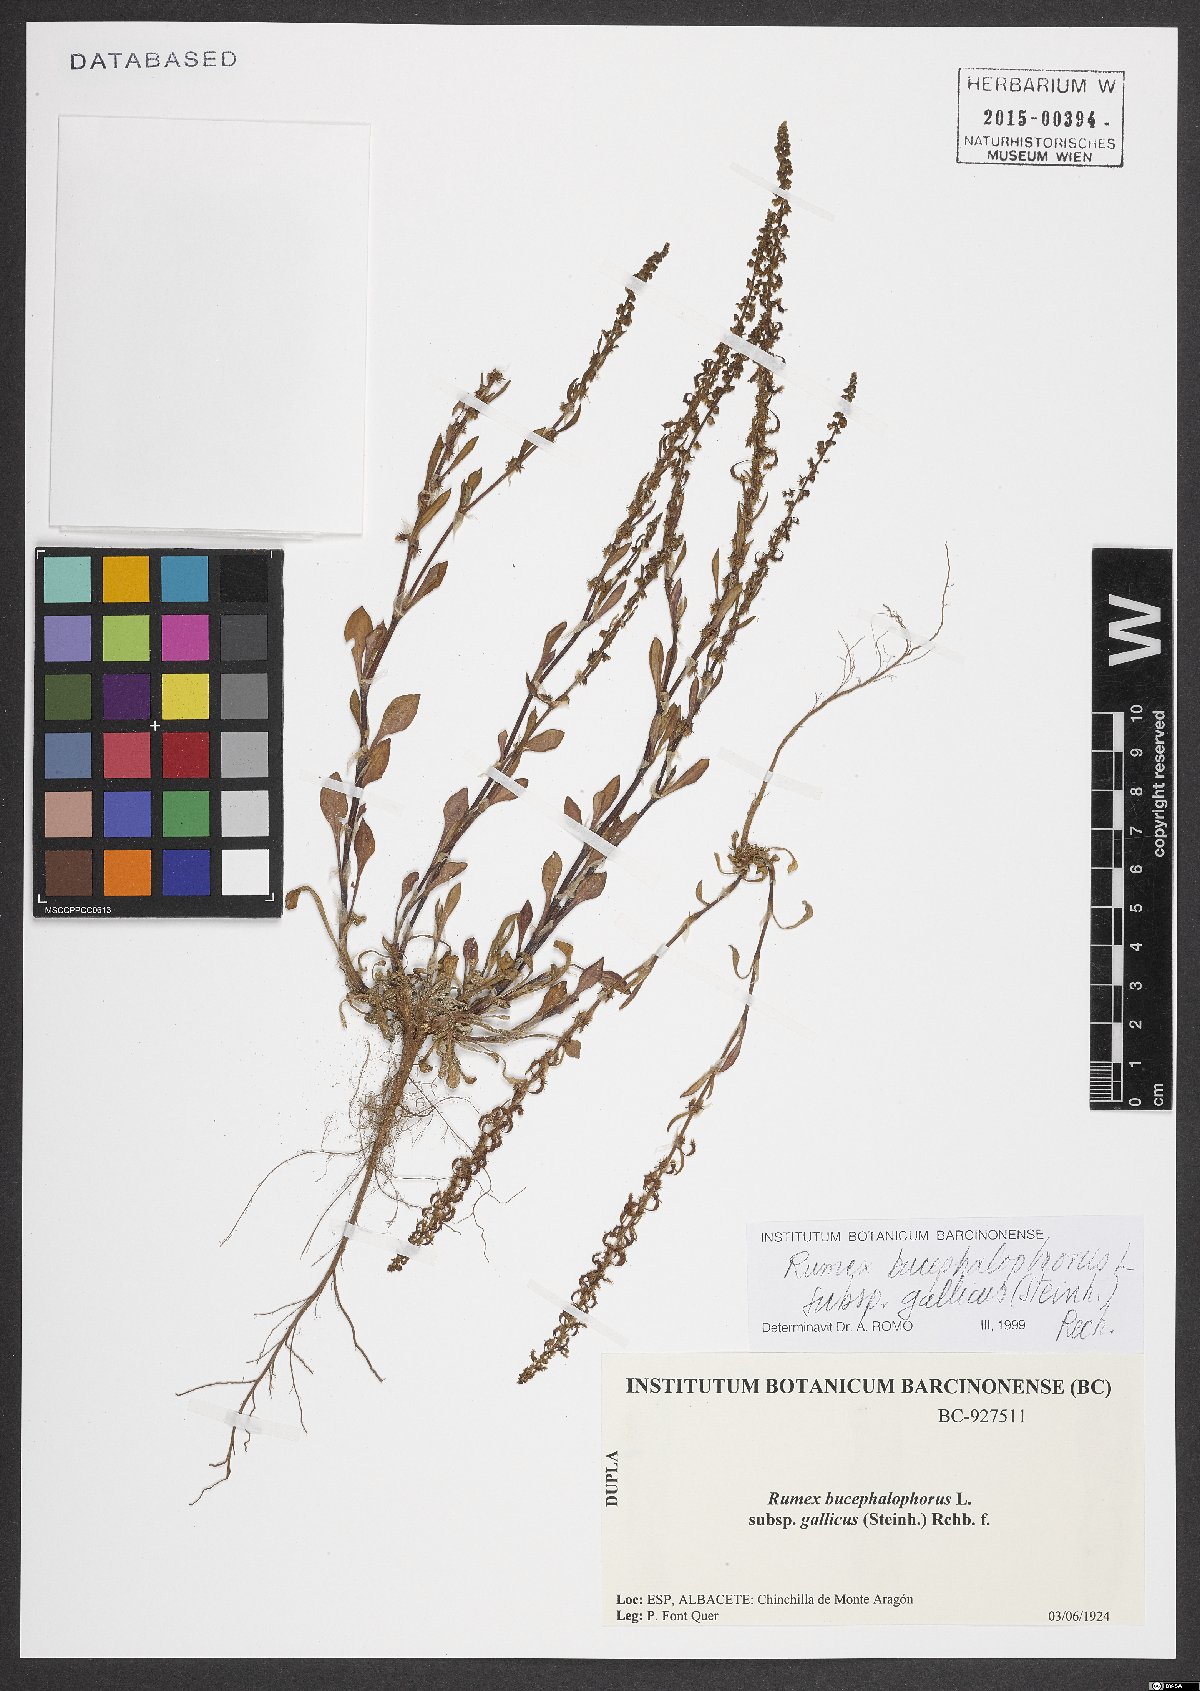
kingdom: Plantae
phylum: Tracheophyta
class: Magnoliopsida
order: Caryophyllales
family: Polygonaceae
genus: Rumex
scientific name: Rumex bucephalophorus
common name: Red dock
